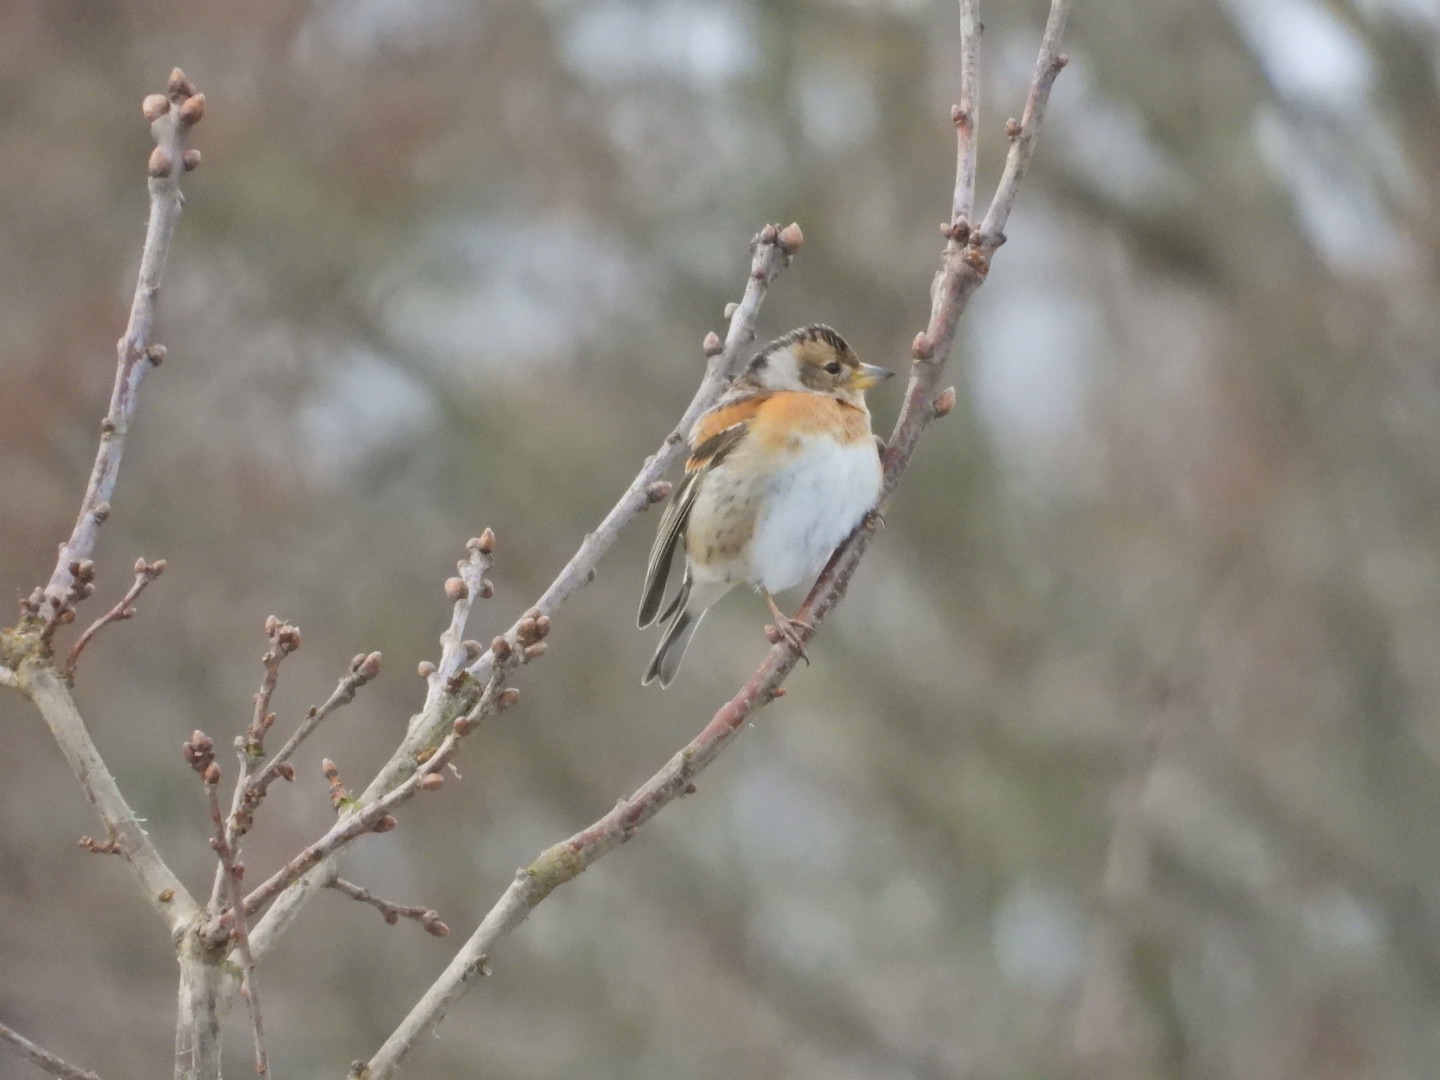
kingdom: Animalia
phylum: Chordata
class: Aves
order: Passeriformes
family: Fringillidae
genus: Fringilla
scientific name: Fringilla montifringilla
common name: Kvækerfinke
